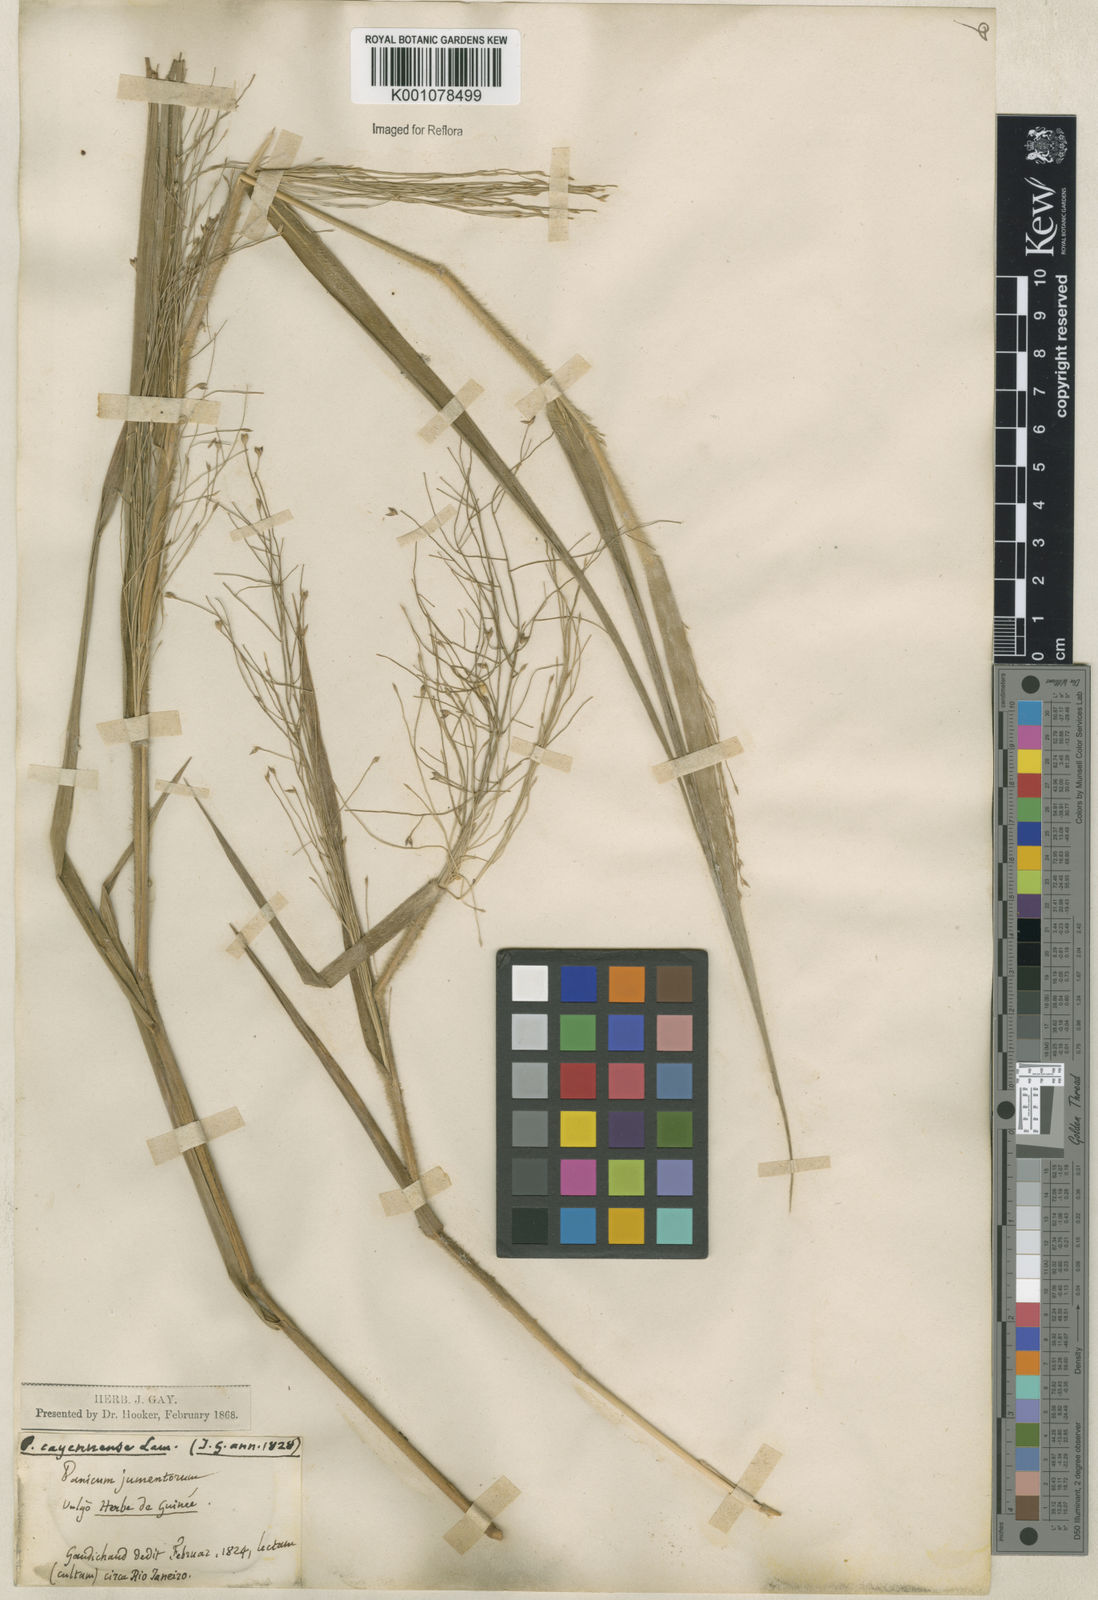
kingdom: Plantae
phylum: Tracheophyta
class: Liliopsida
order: Poales
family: Poaceae
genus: Panicum
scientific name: Panicum rudgei
